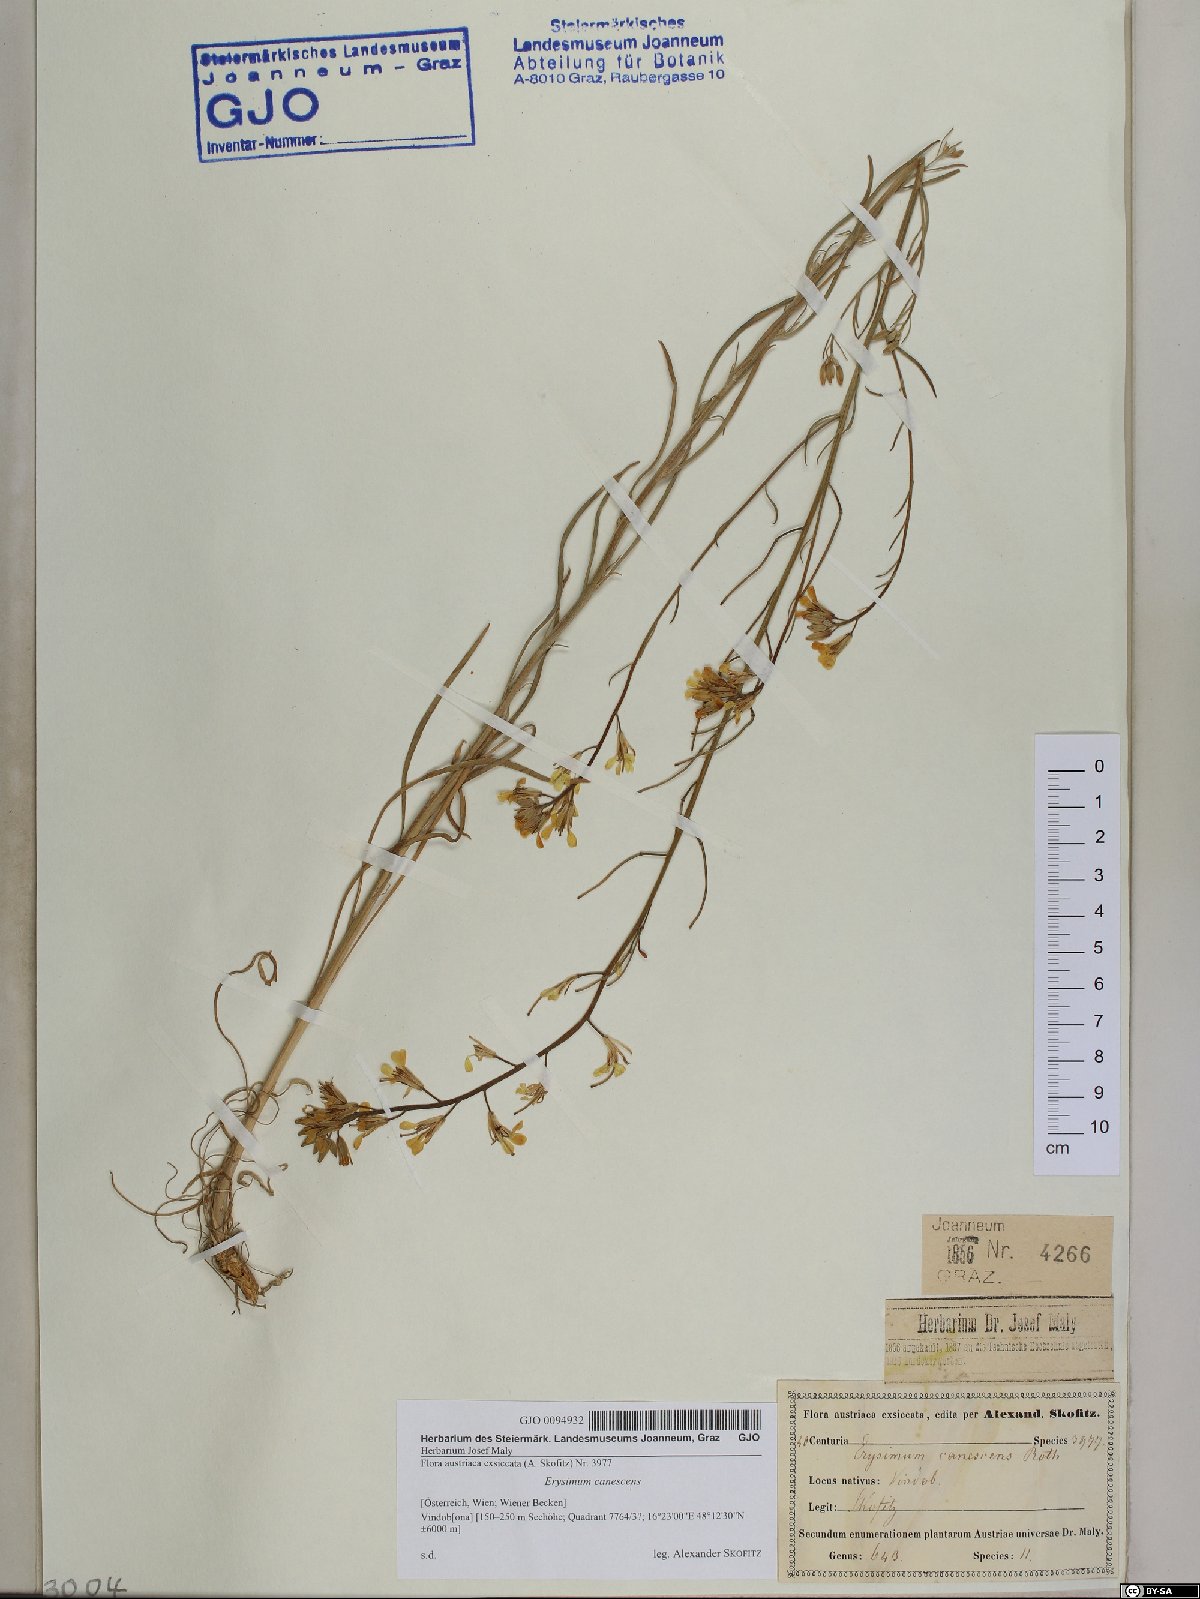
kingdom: Plantae
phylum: Tracheophyta
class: Magnoliopsida
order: Brassicales
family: Brassicaceae
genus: Erysimum
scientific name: Erysimum canescens
